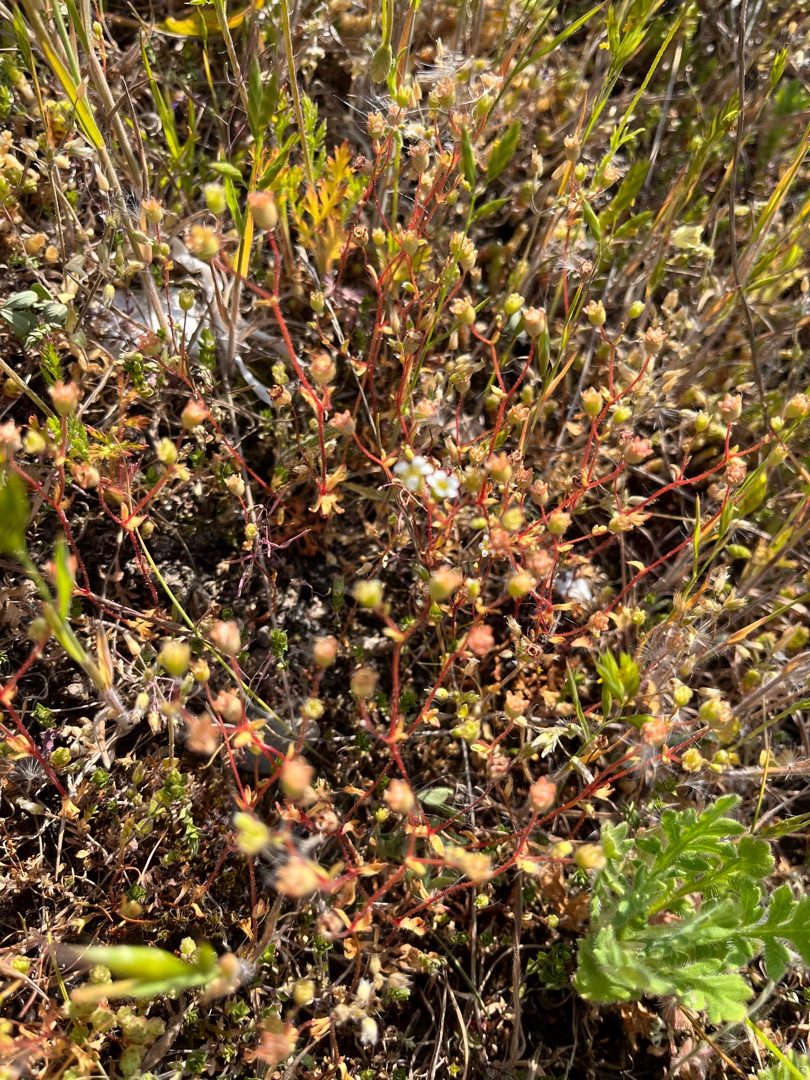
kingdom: Plantae
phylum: Tracheophyta
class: Magnoliopsida
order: Saxifragales
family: Saxifragaceae
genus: Saxifraga
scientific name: Saxifraga tridactylites
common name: Trekløft-stenbræk
